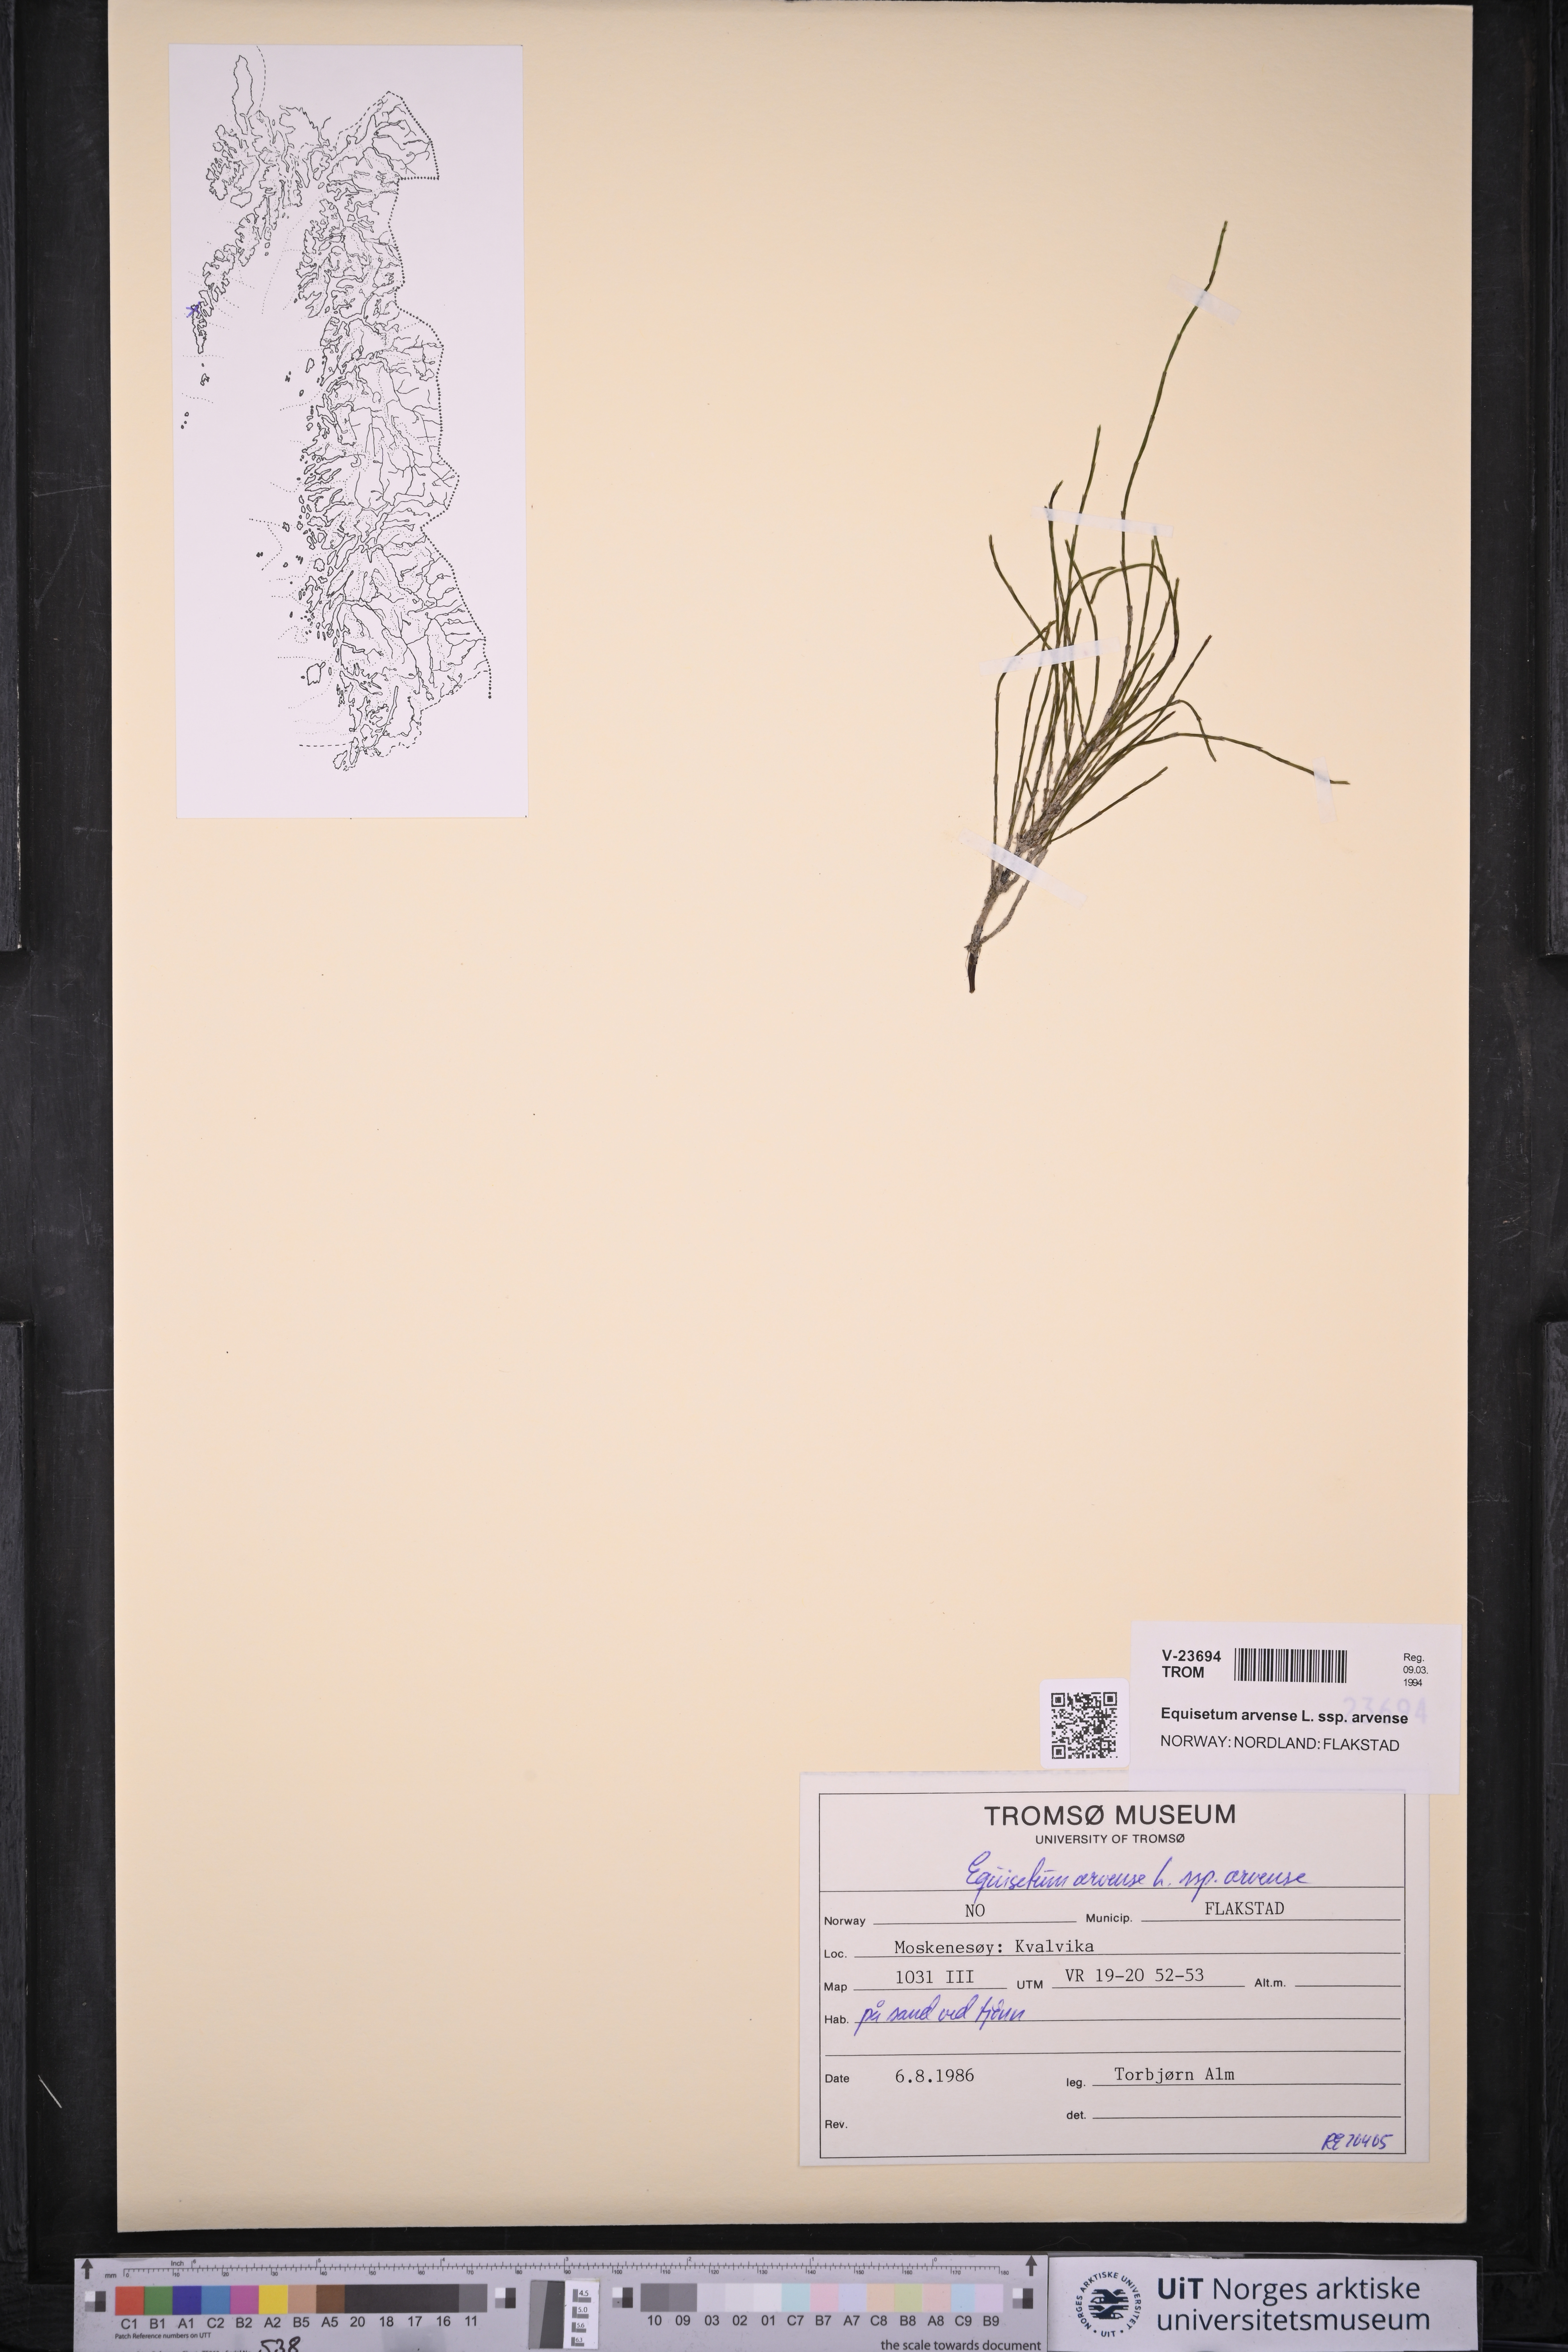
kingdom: Plantae
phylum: Tracheophyta
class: Polypodiopsida
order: Equisetales
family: Equisetaceae
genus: Equisetum
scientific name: Equisetum arvense
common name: Field horsetail
